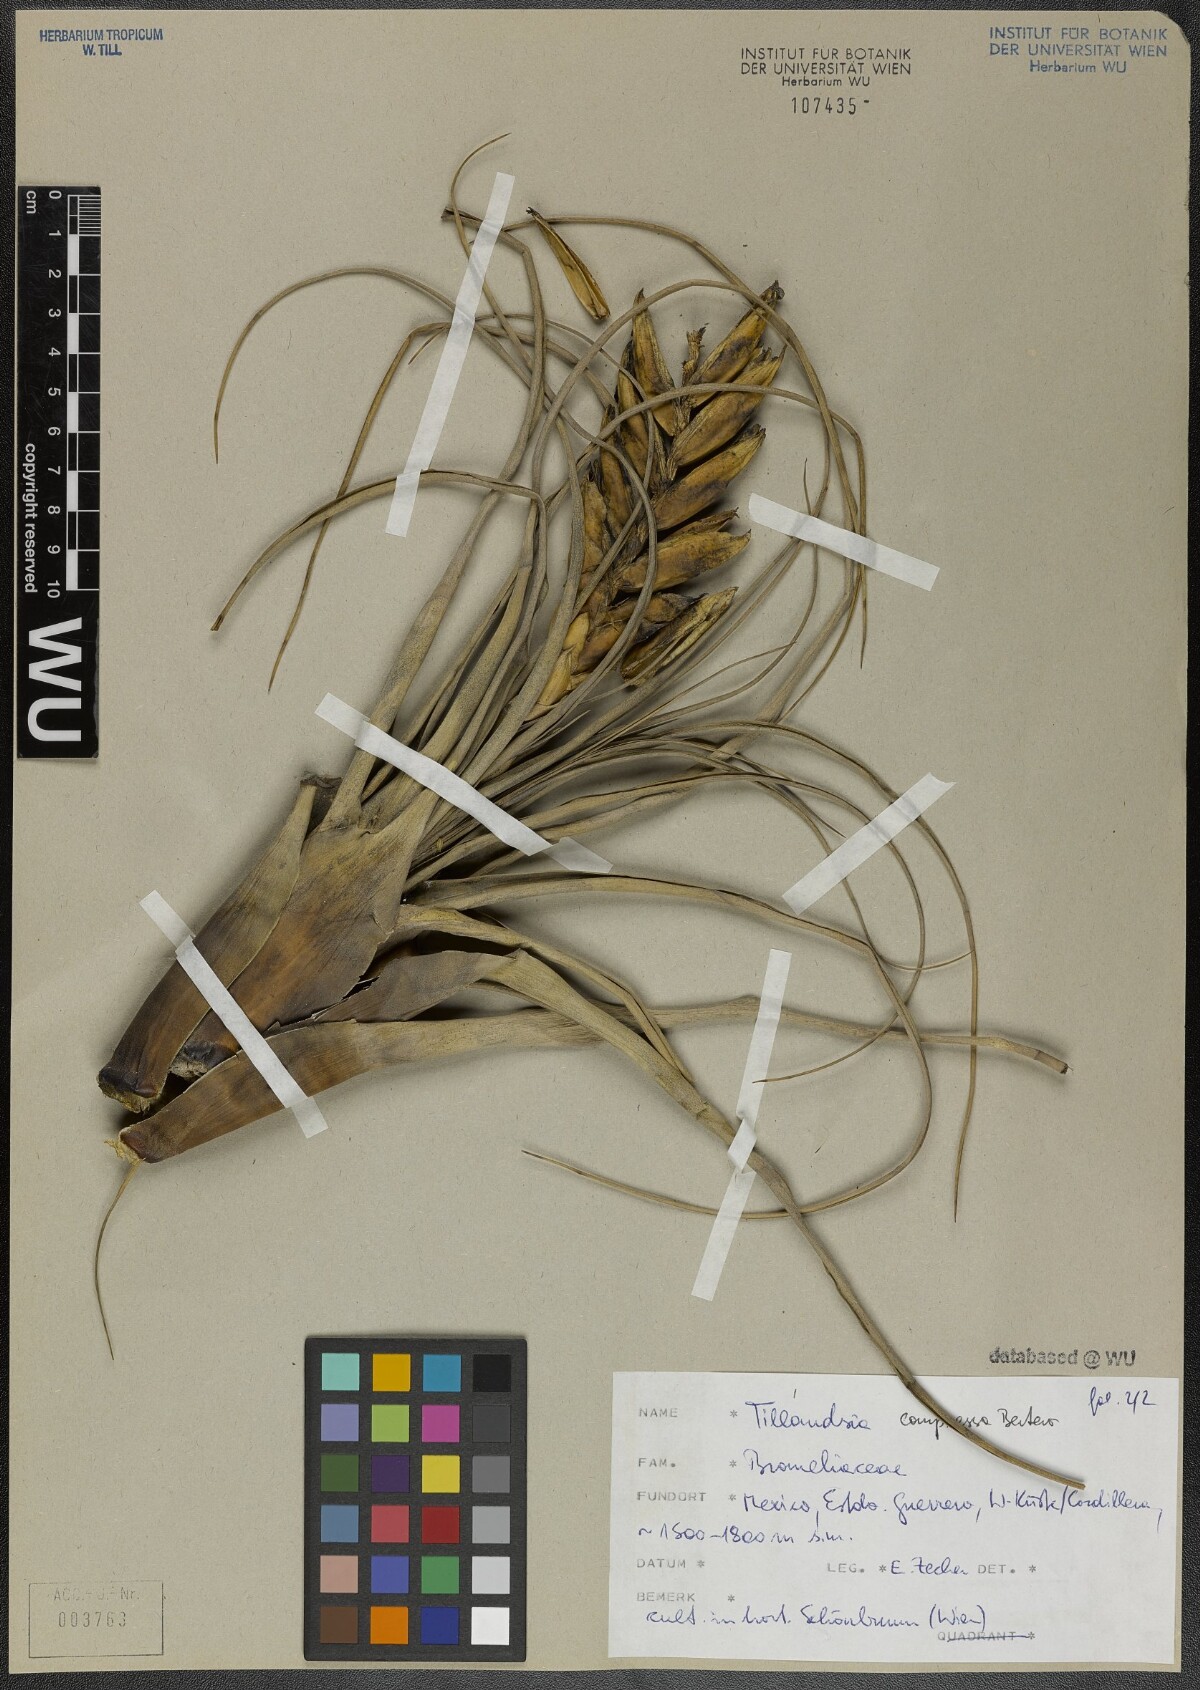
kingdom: Plantae
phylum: Tracheophyta
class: Liliopsida
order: Poales
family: Bromeliaceae
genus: Tillandsia
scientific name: Tillandsia compressa
